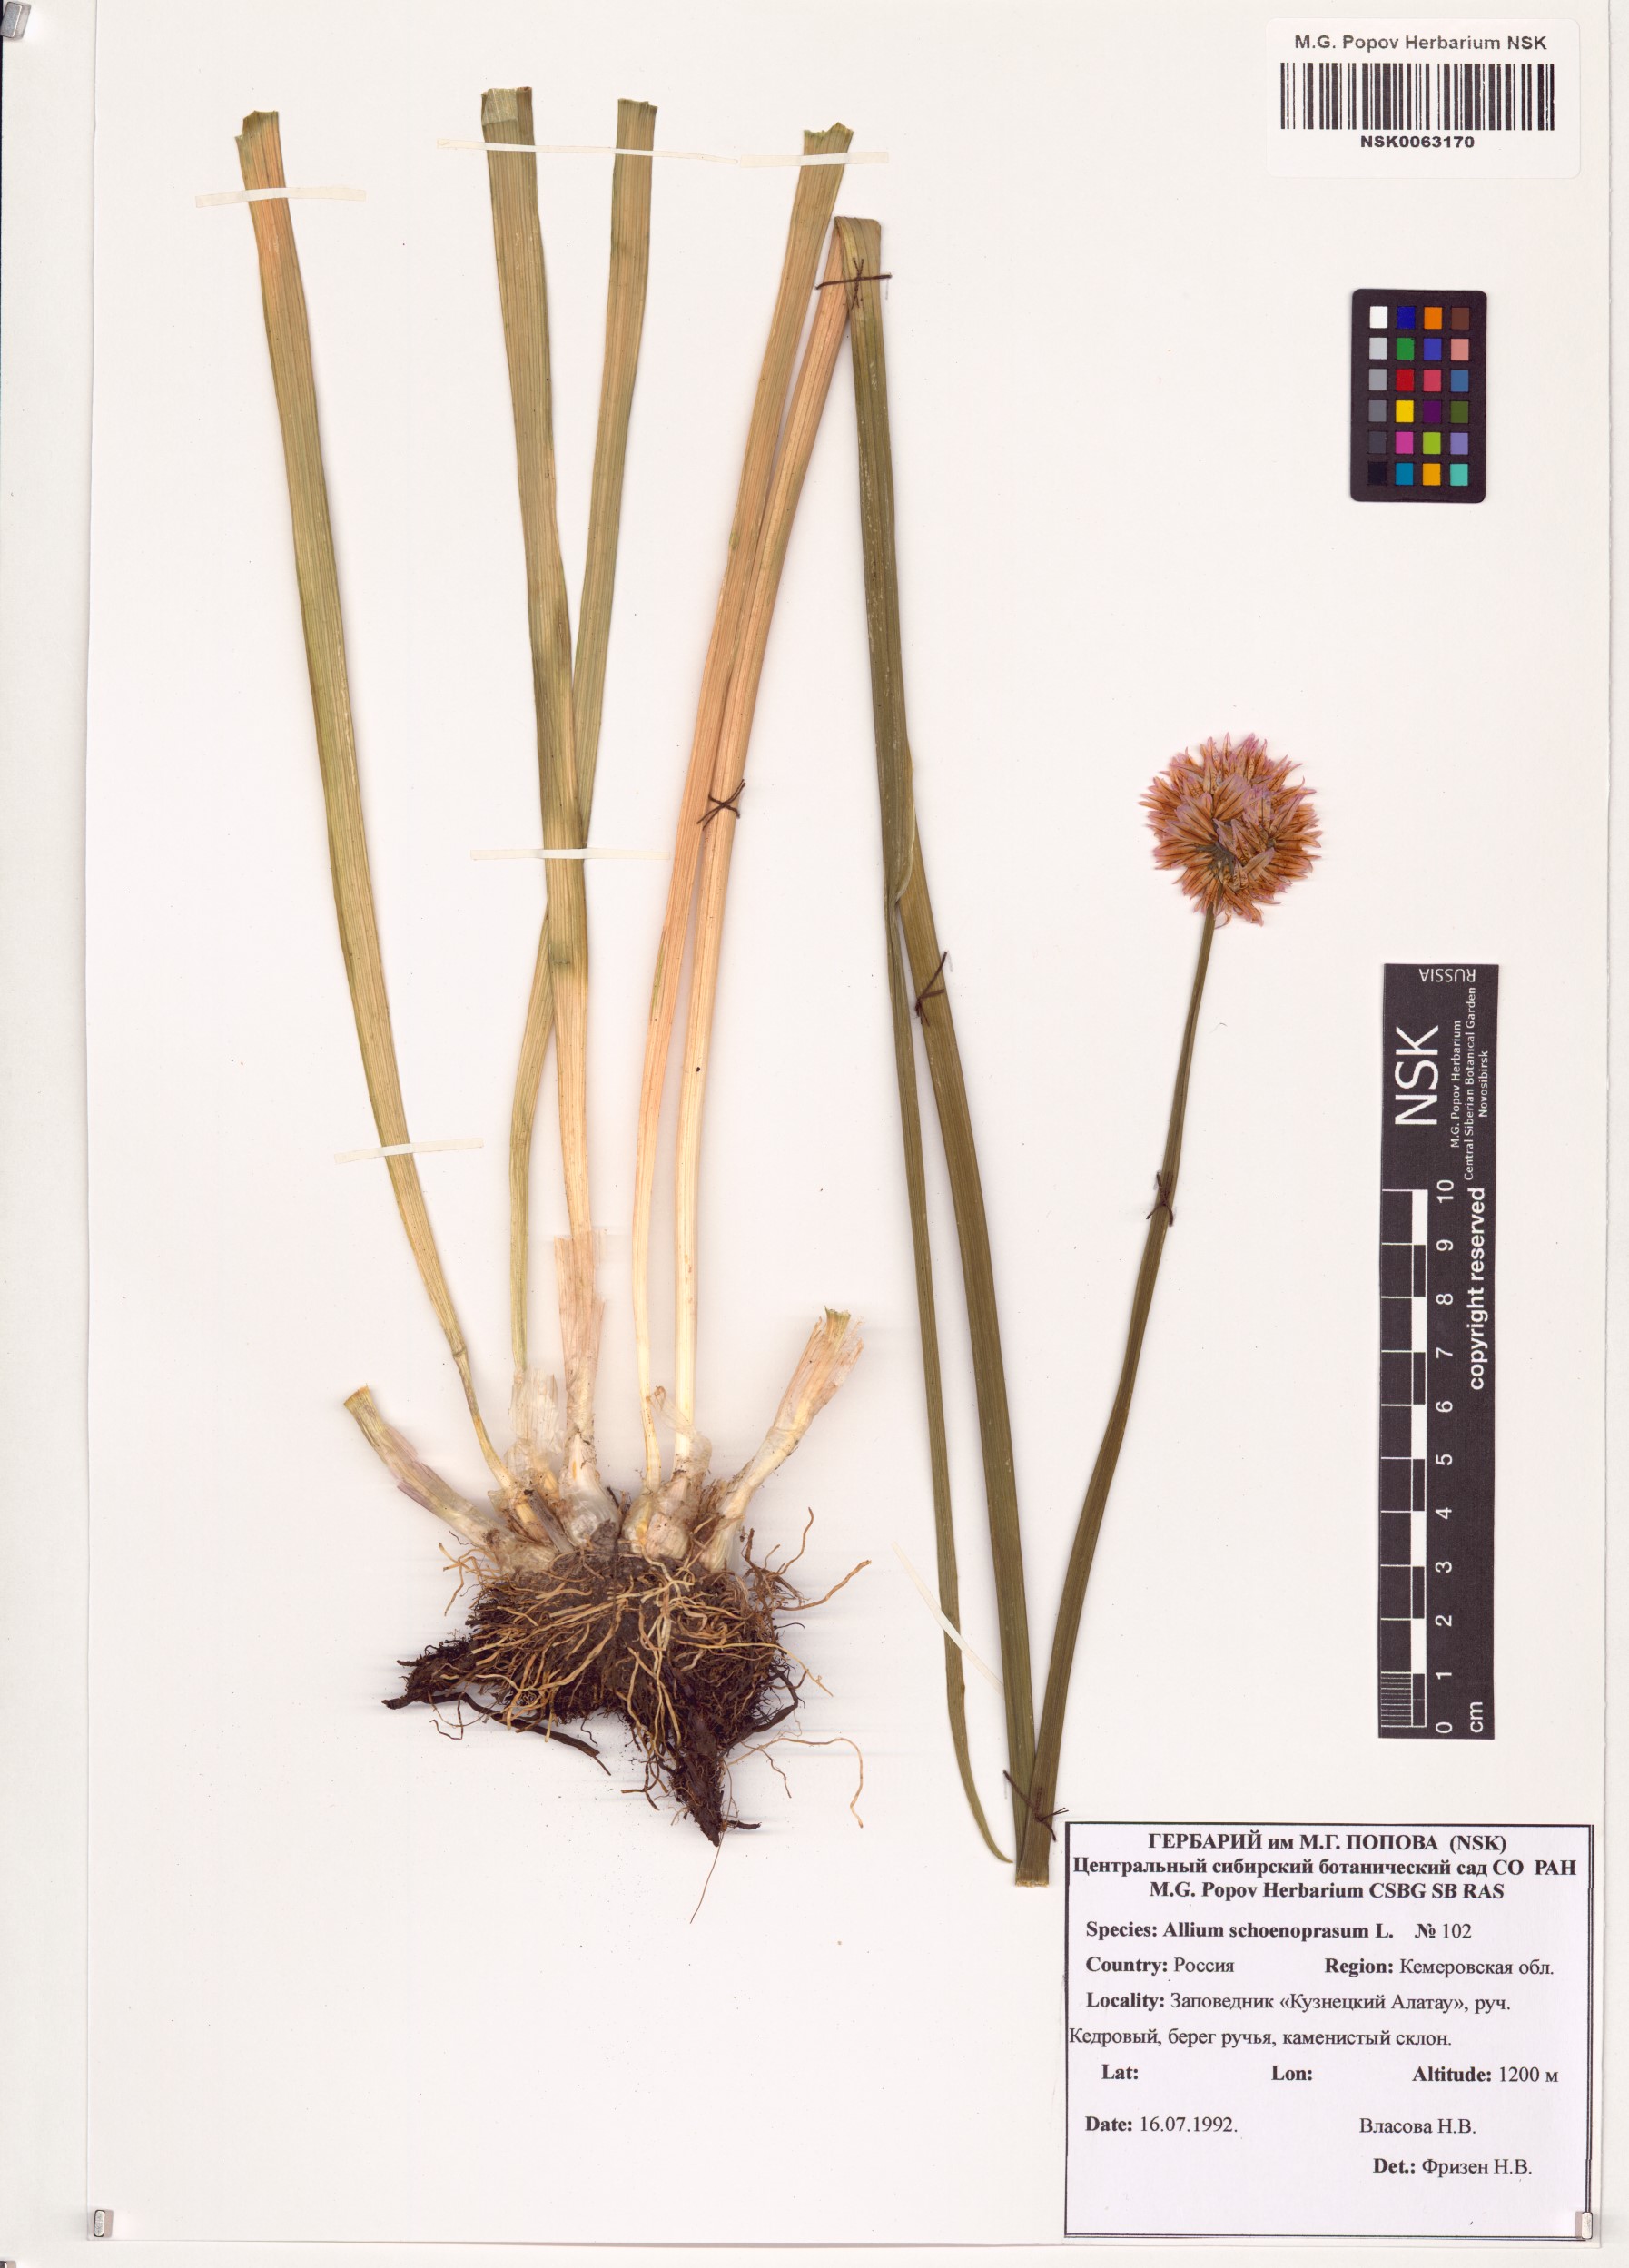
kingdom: Plantae
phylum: Tracheophyta
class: Liliopsida
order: Asparagales
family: Amaryllidaceae
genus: Allium
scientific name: Allium schoenoprasoides
